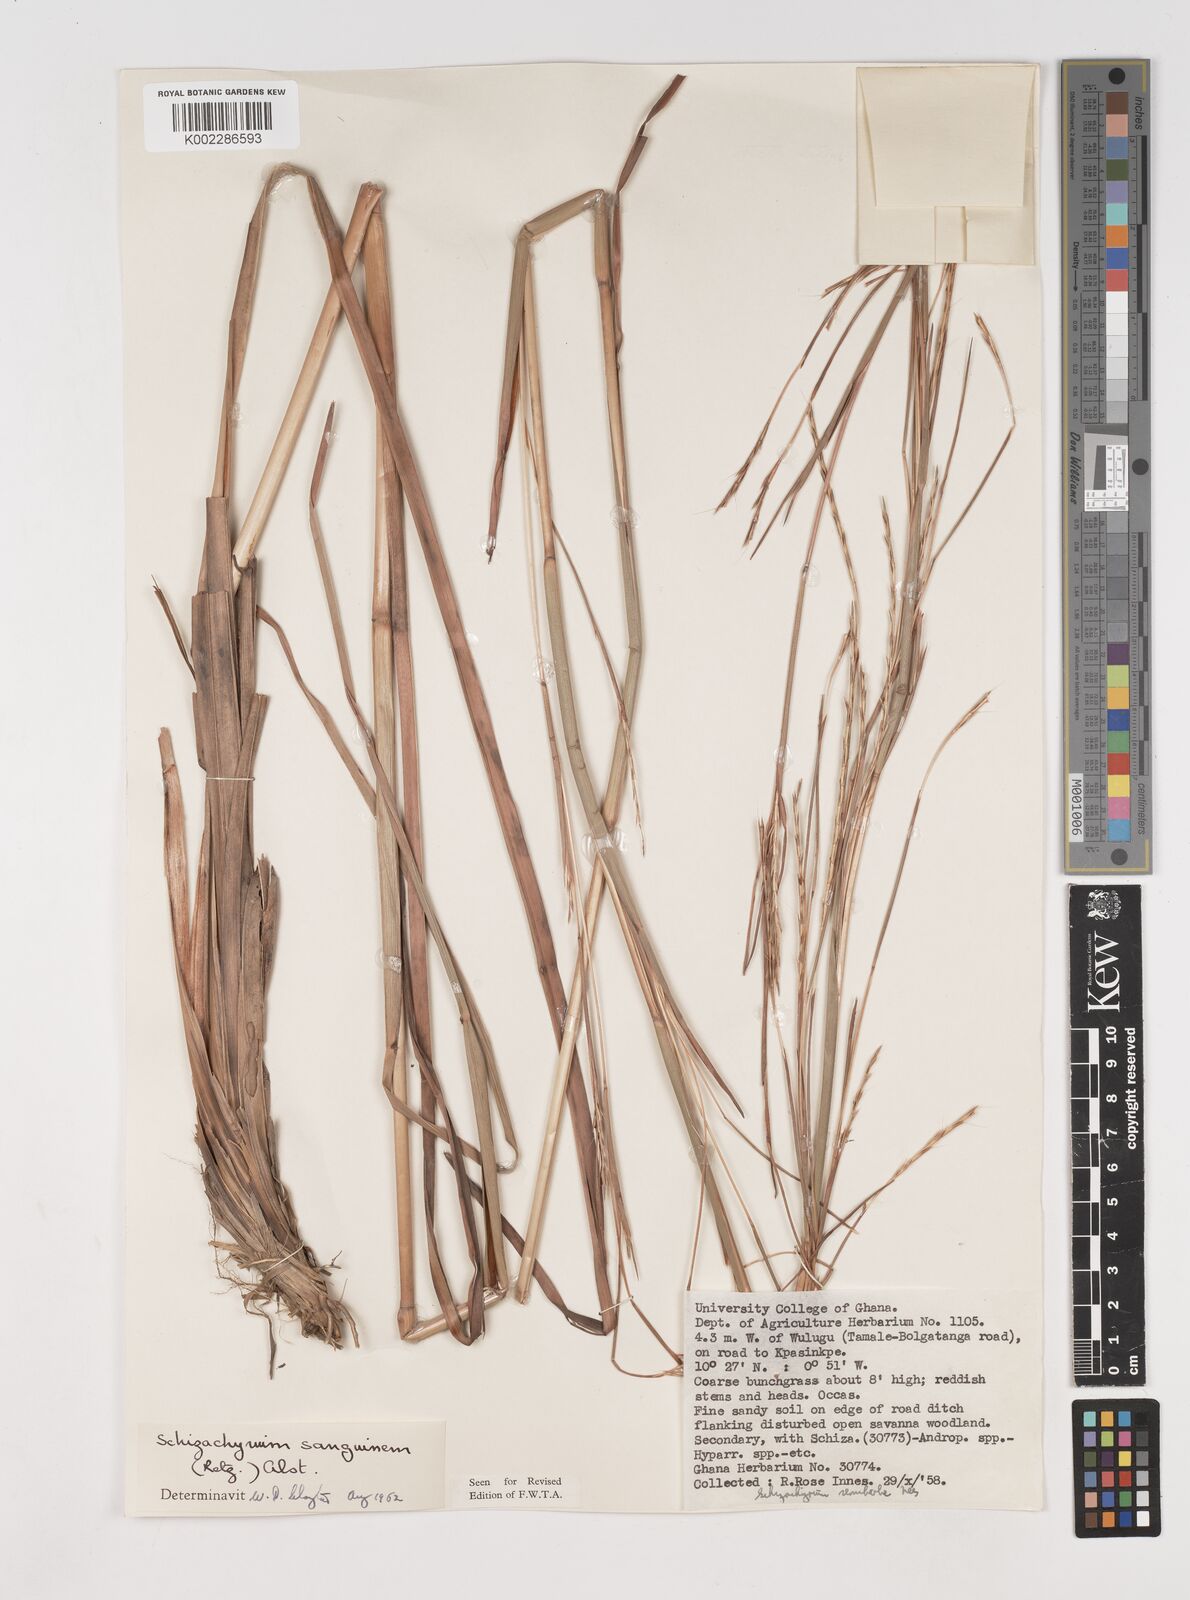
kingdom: Plantae
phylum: Tracheophyta
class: Liliopsida
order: Poales
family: Poaceae
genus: Schizachyrium
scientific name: Schizachyrium sanguineum
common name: Crimson bluestem
